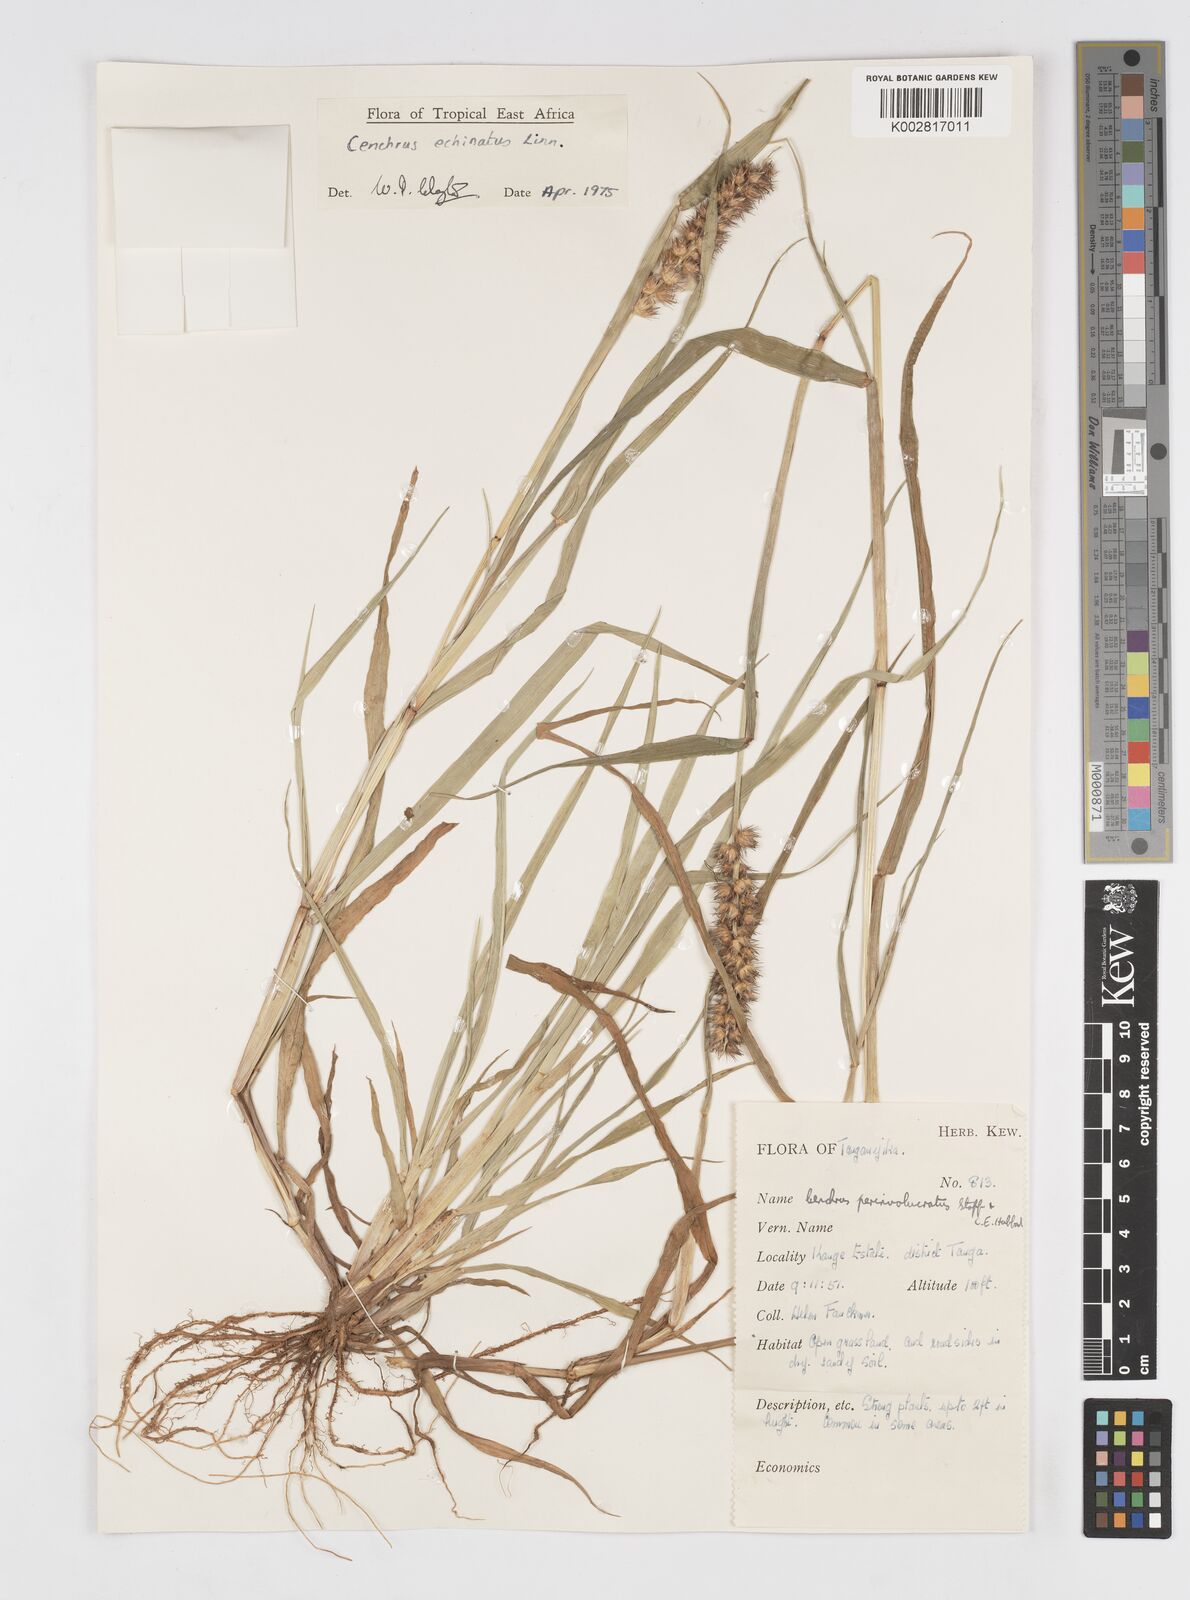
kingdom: Plantae
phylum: Tracheophyta
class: Liliopsida
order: Poales
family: Poaceae
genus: Cenchrus
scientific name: Cenchrus echinatus
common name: Southern sandbur
